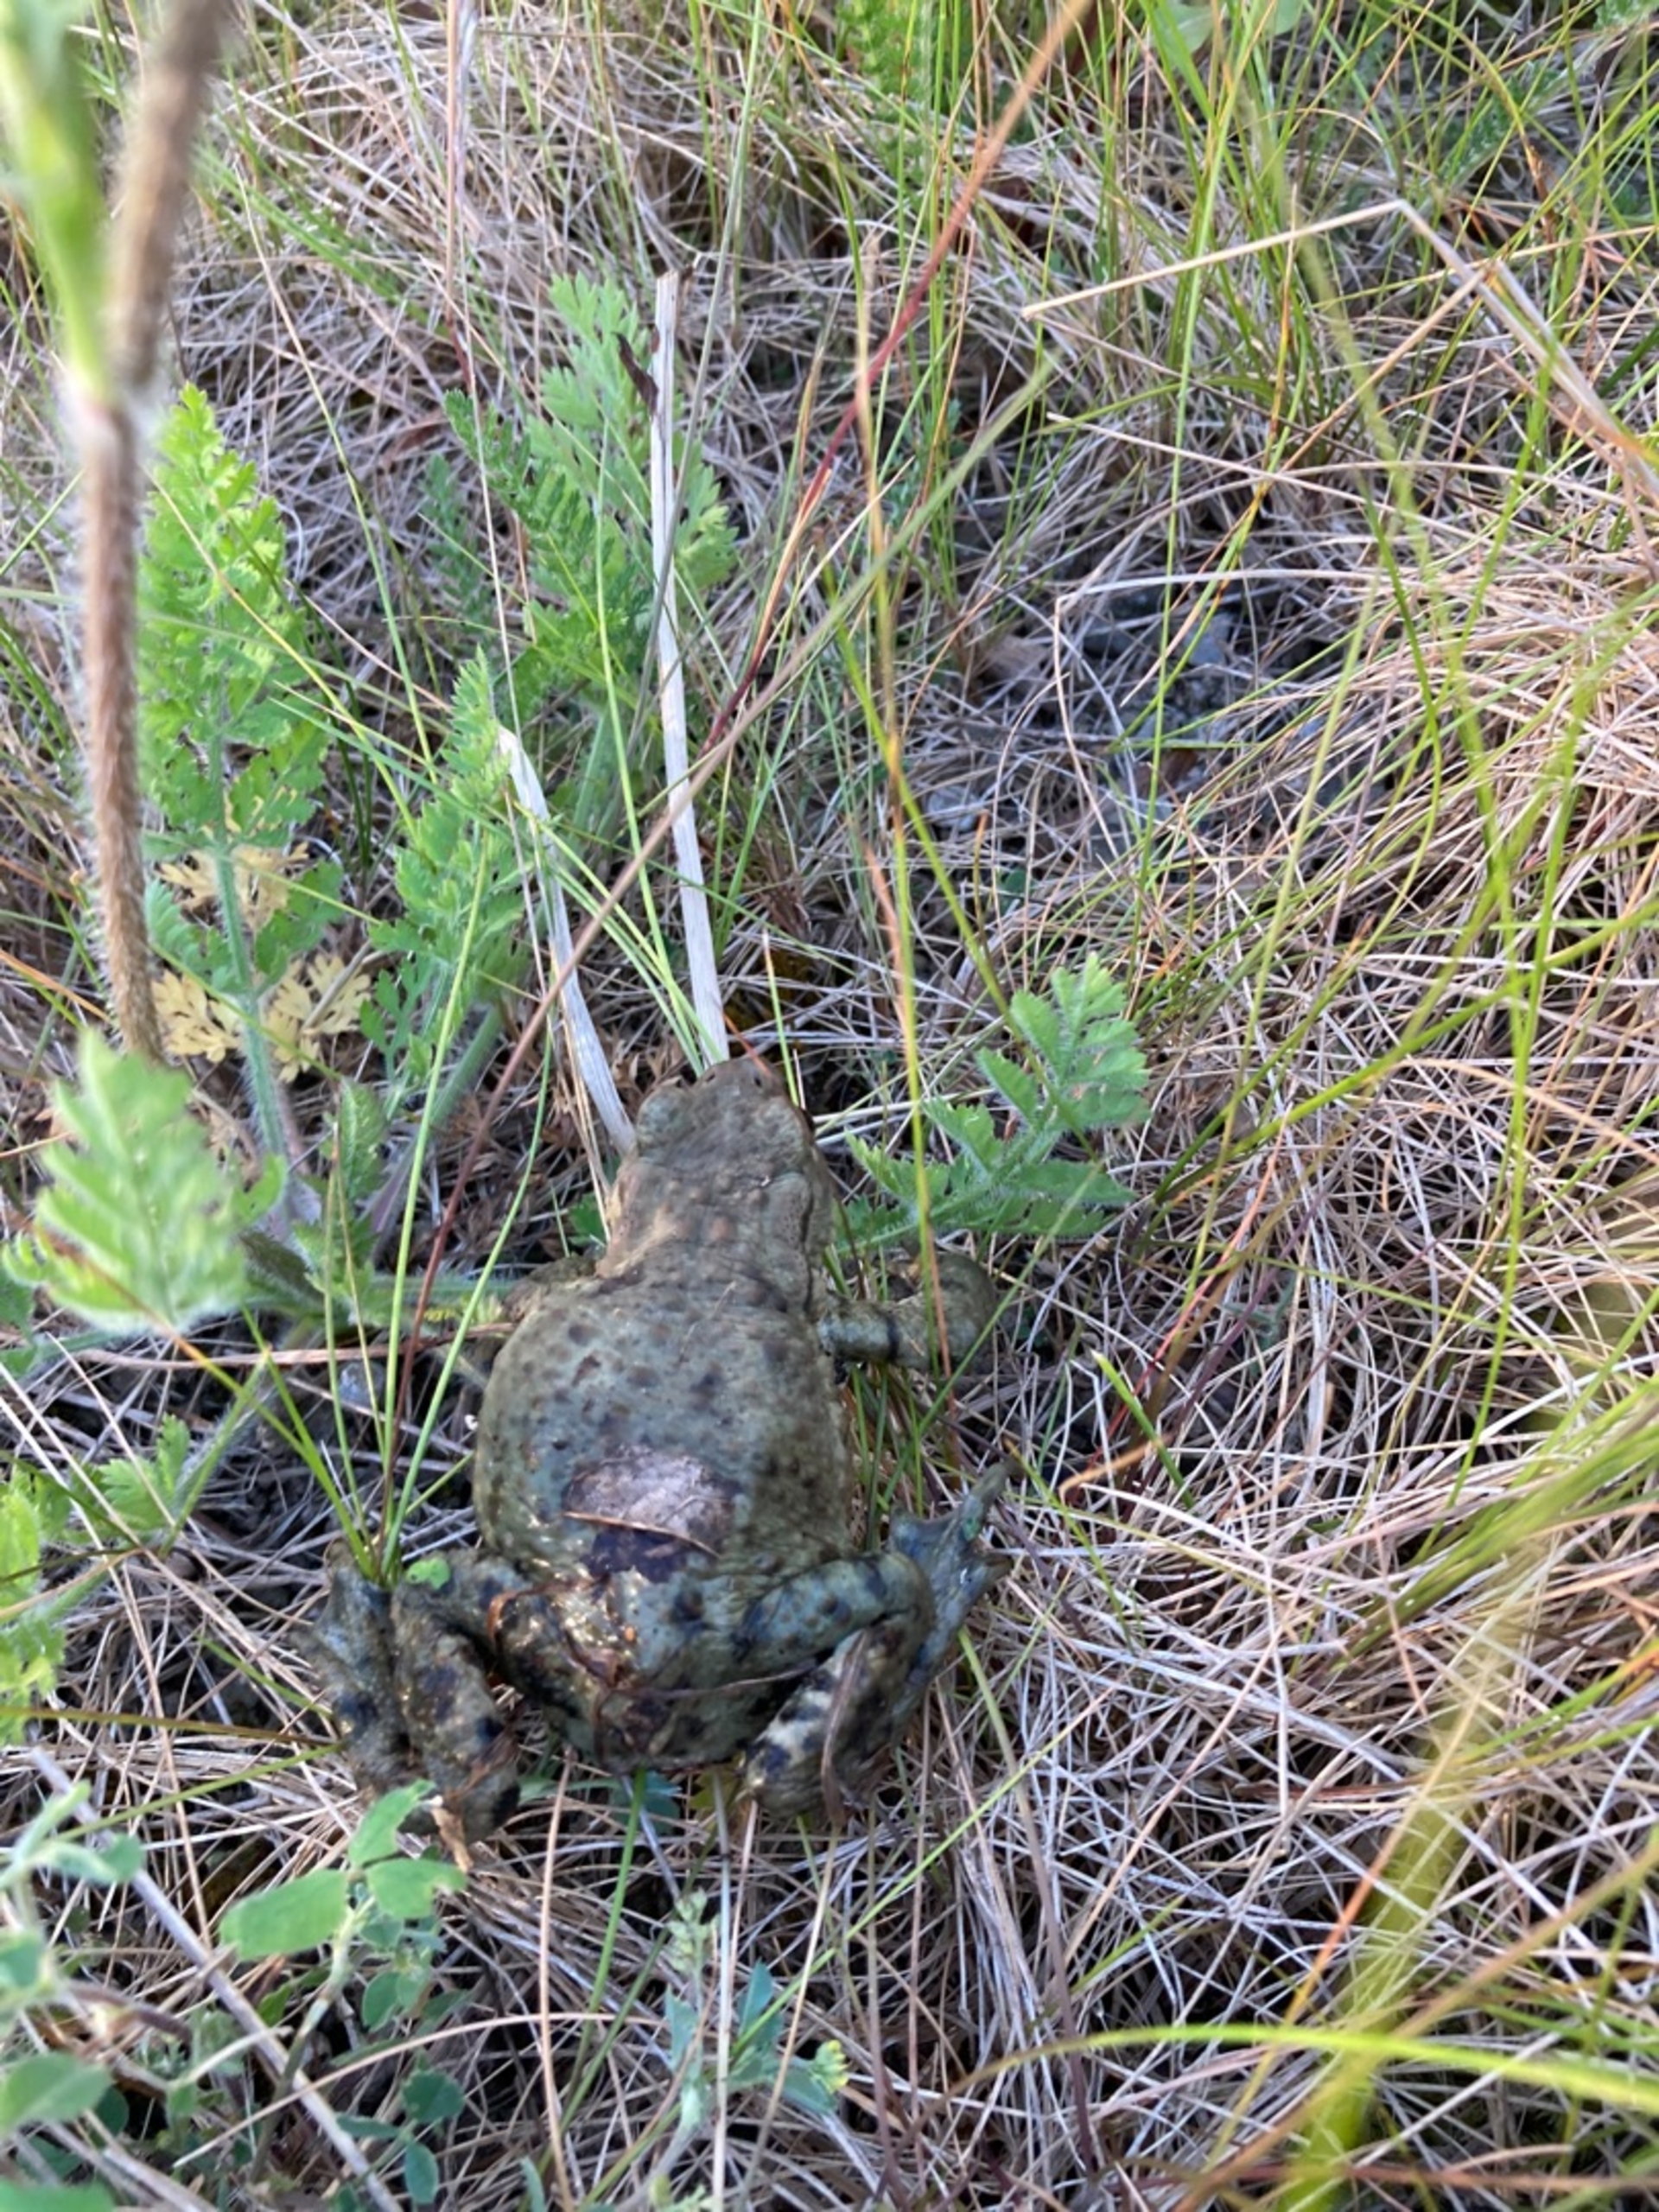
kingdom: Animalia
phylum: Chordata
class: Amphibia
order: Anura
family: Bufonidae
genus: Bufo
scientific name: Bufo bufo
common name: Skrubtudse
